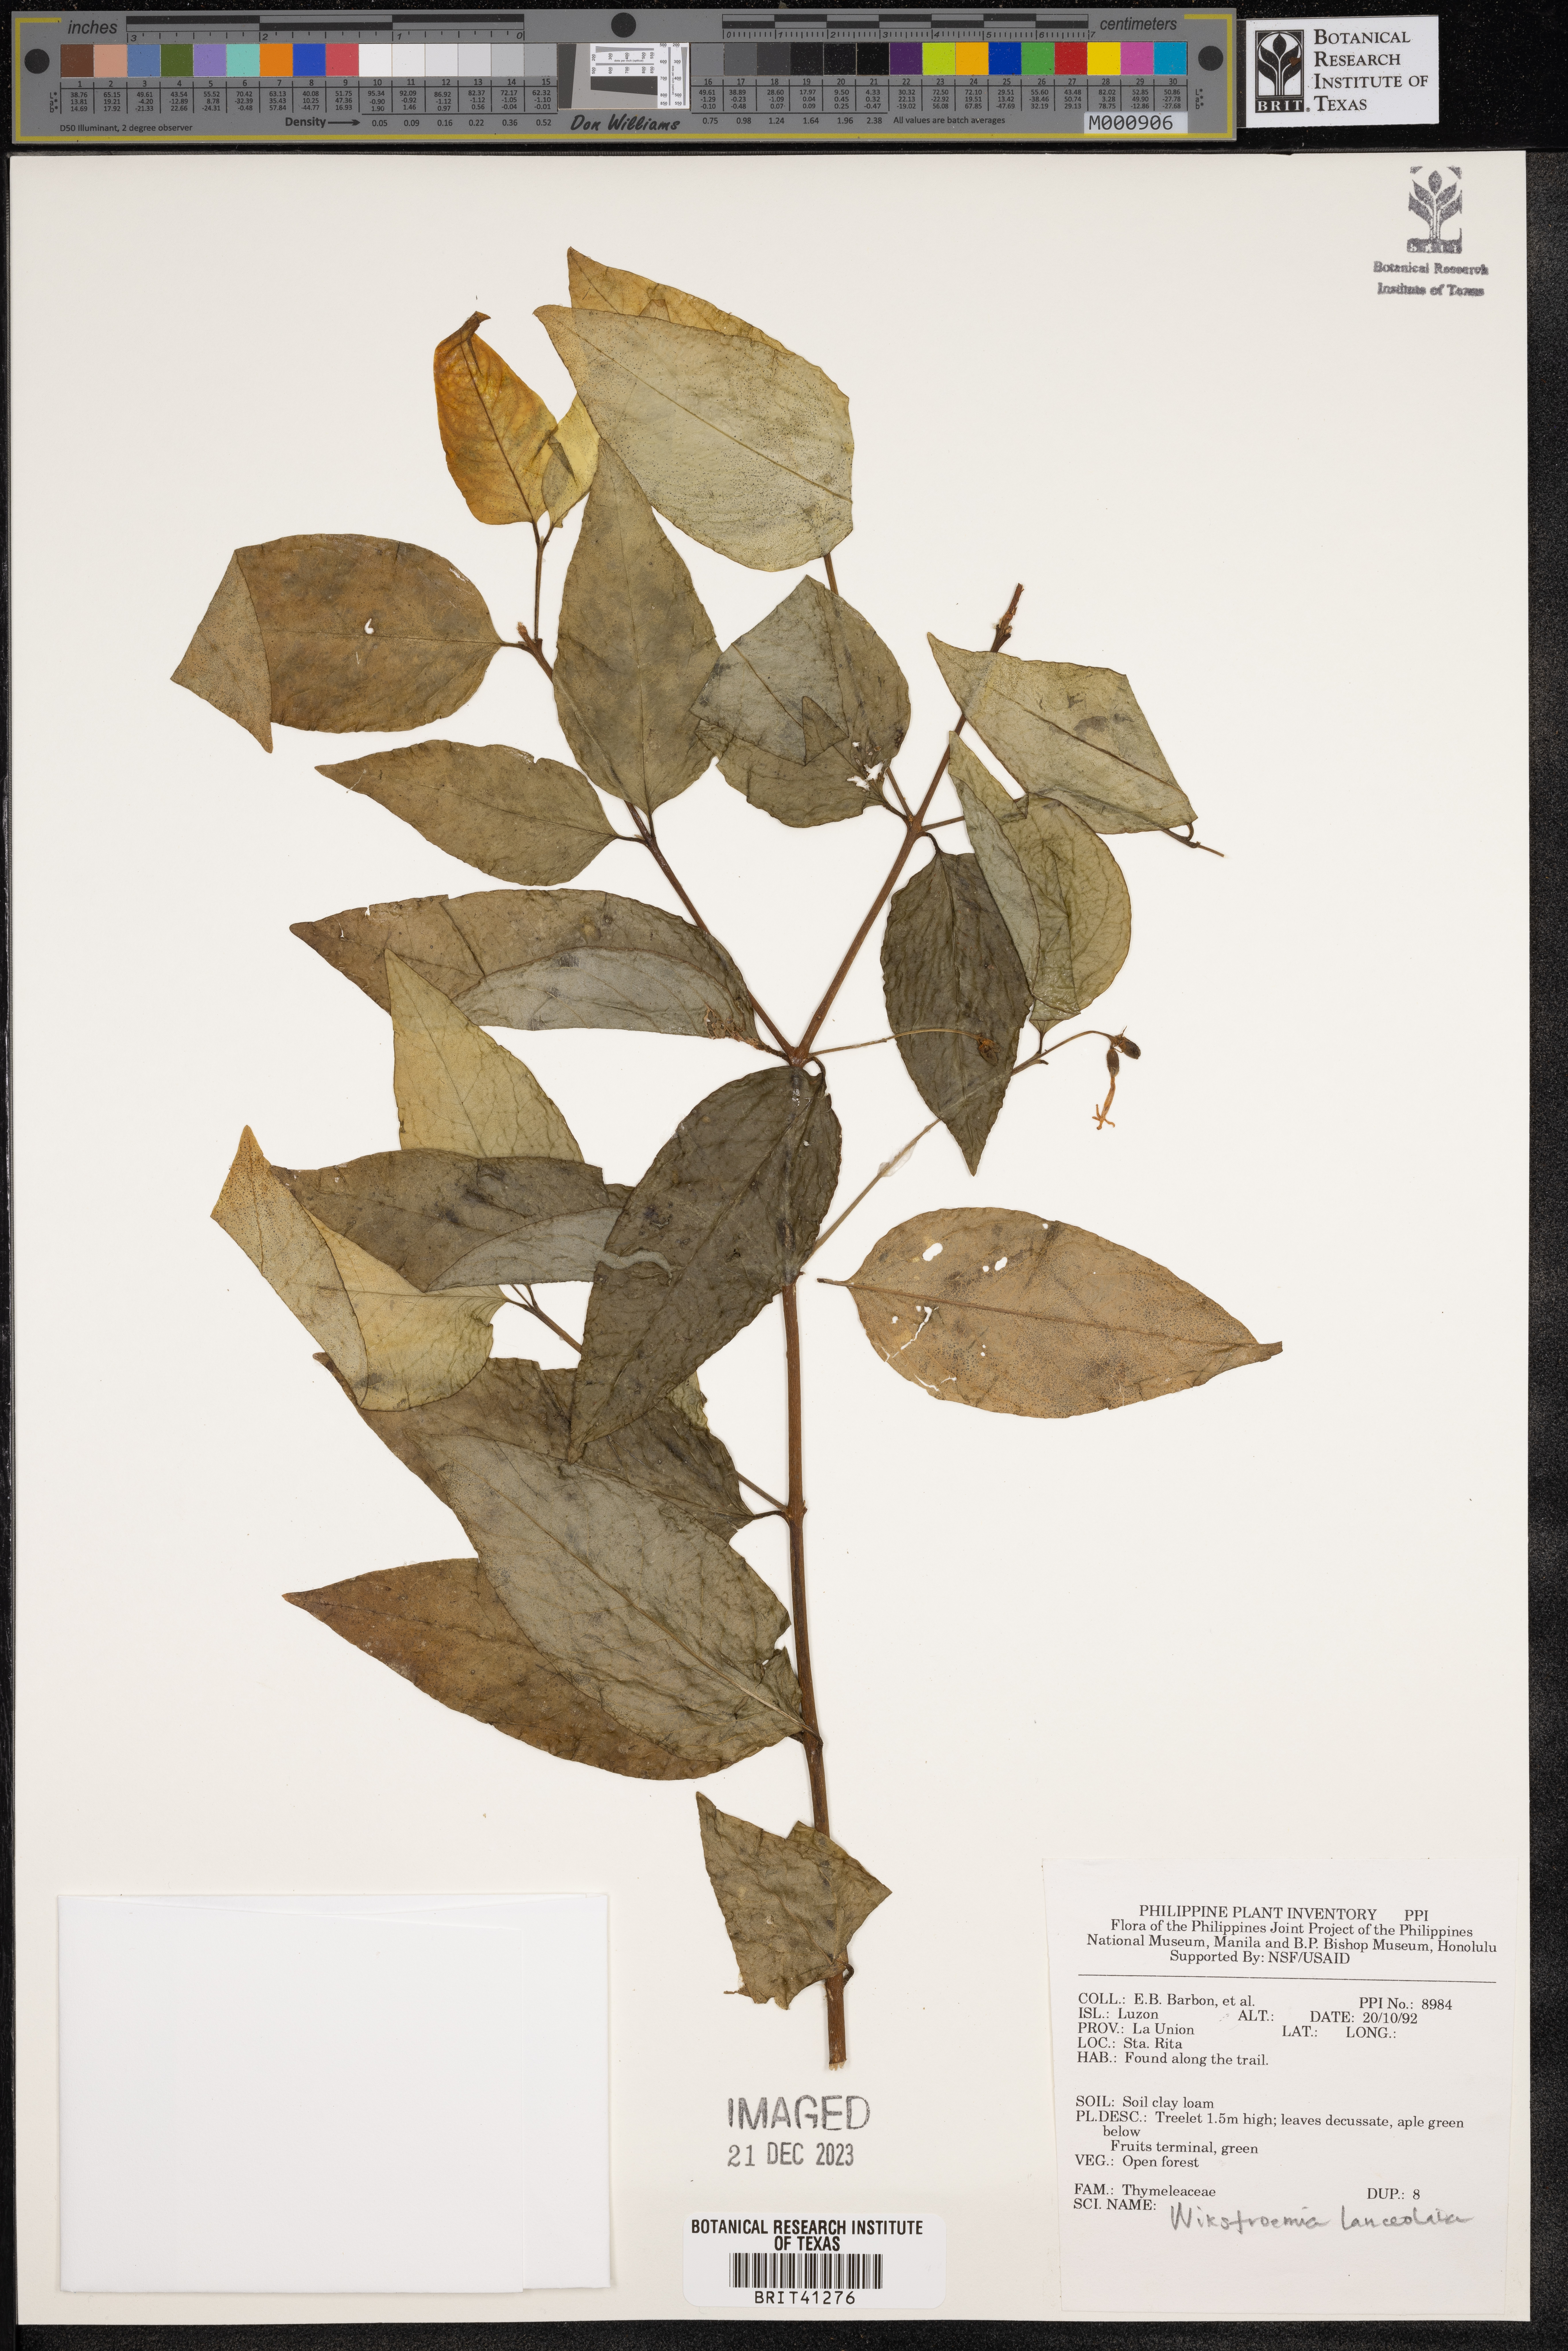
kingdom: Plantae
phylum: Tracheophyta
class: Magnoliopsida
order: Malvales
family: Thymelaeaceae
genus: Wikstroemia
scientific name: Wikstroemia lanceolata
